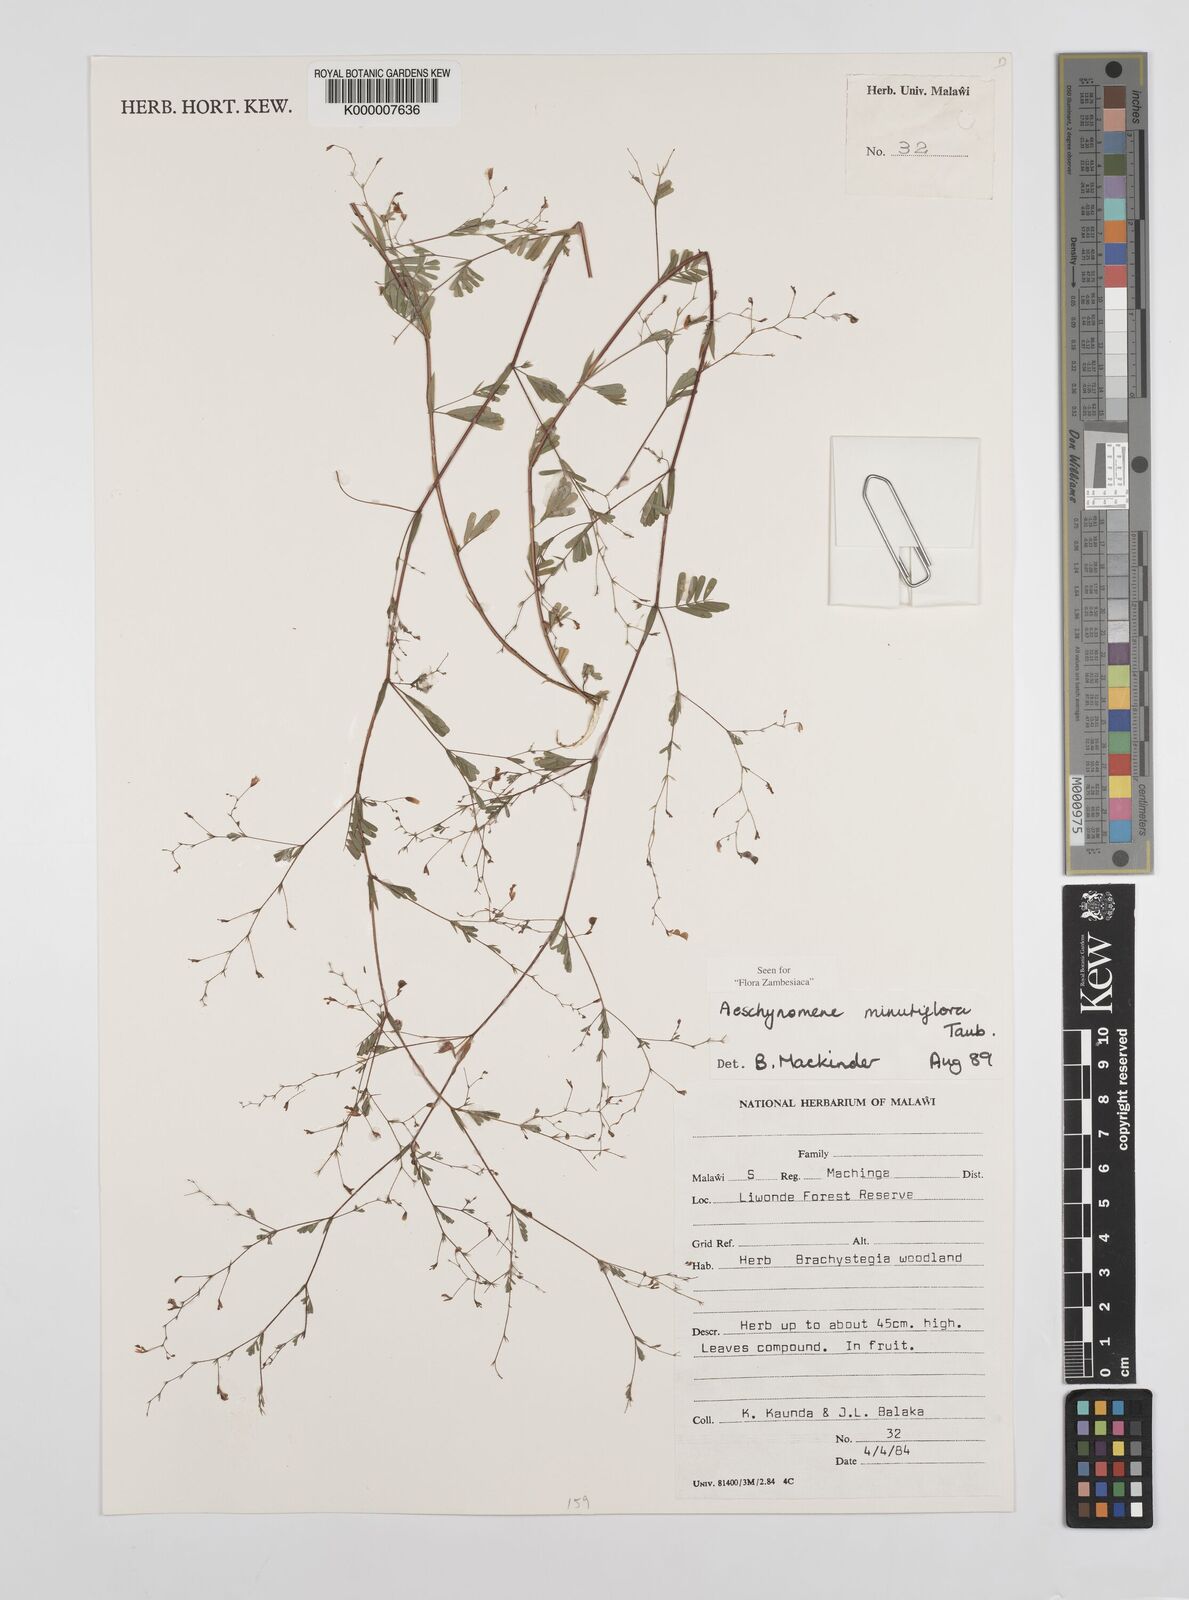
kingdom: Plantae
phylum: Tracheophyta
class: Magnoliopsida
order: Fabales
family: Fabaceae
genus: Aeschynomene
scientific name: Aeschynomene minutiflora
